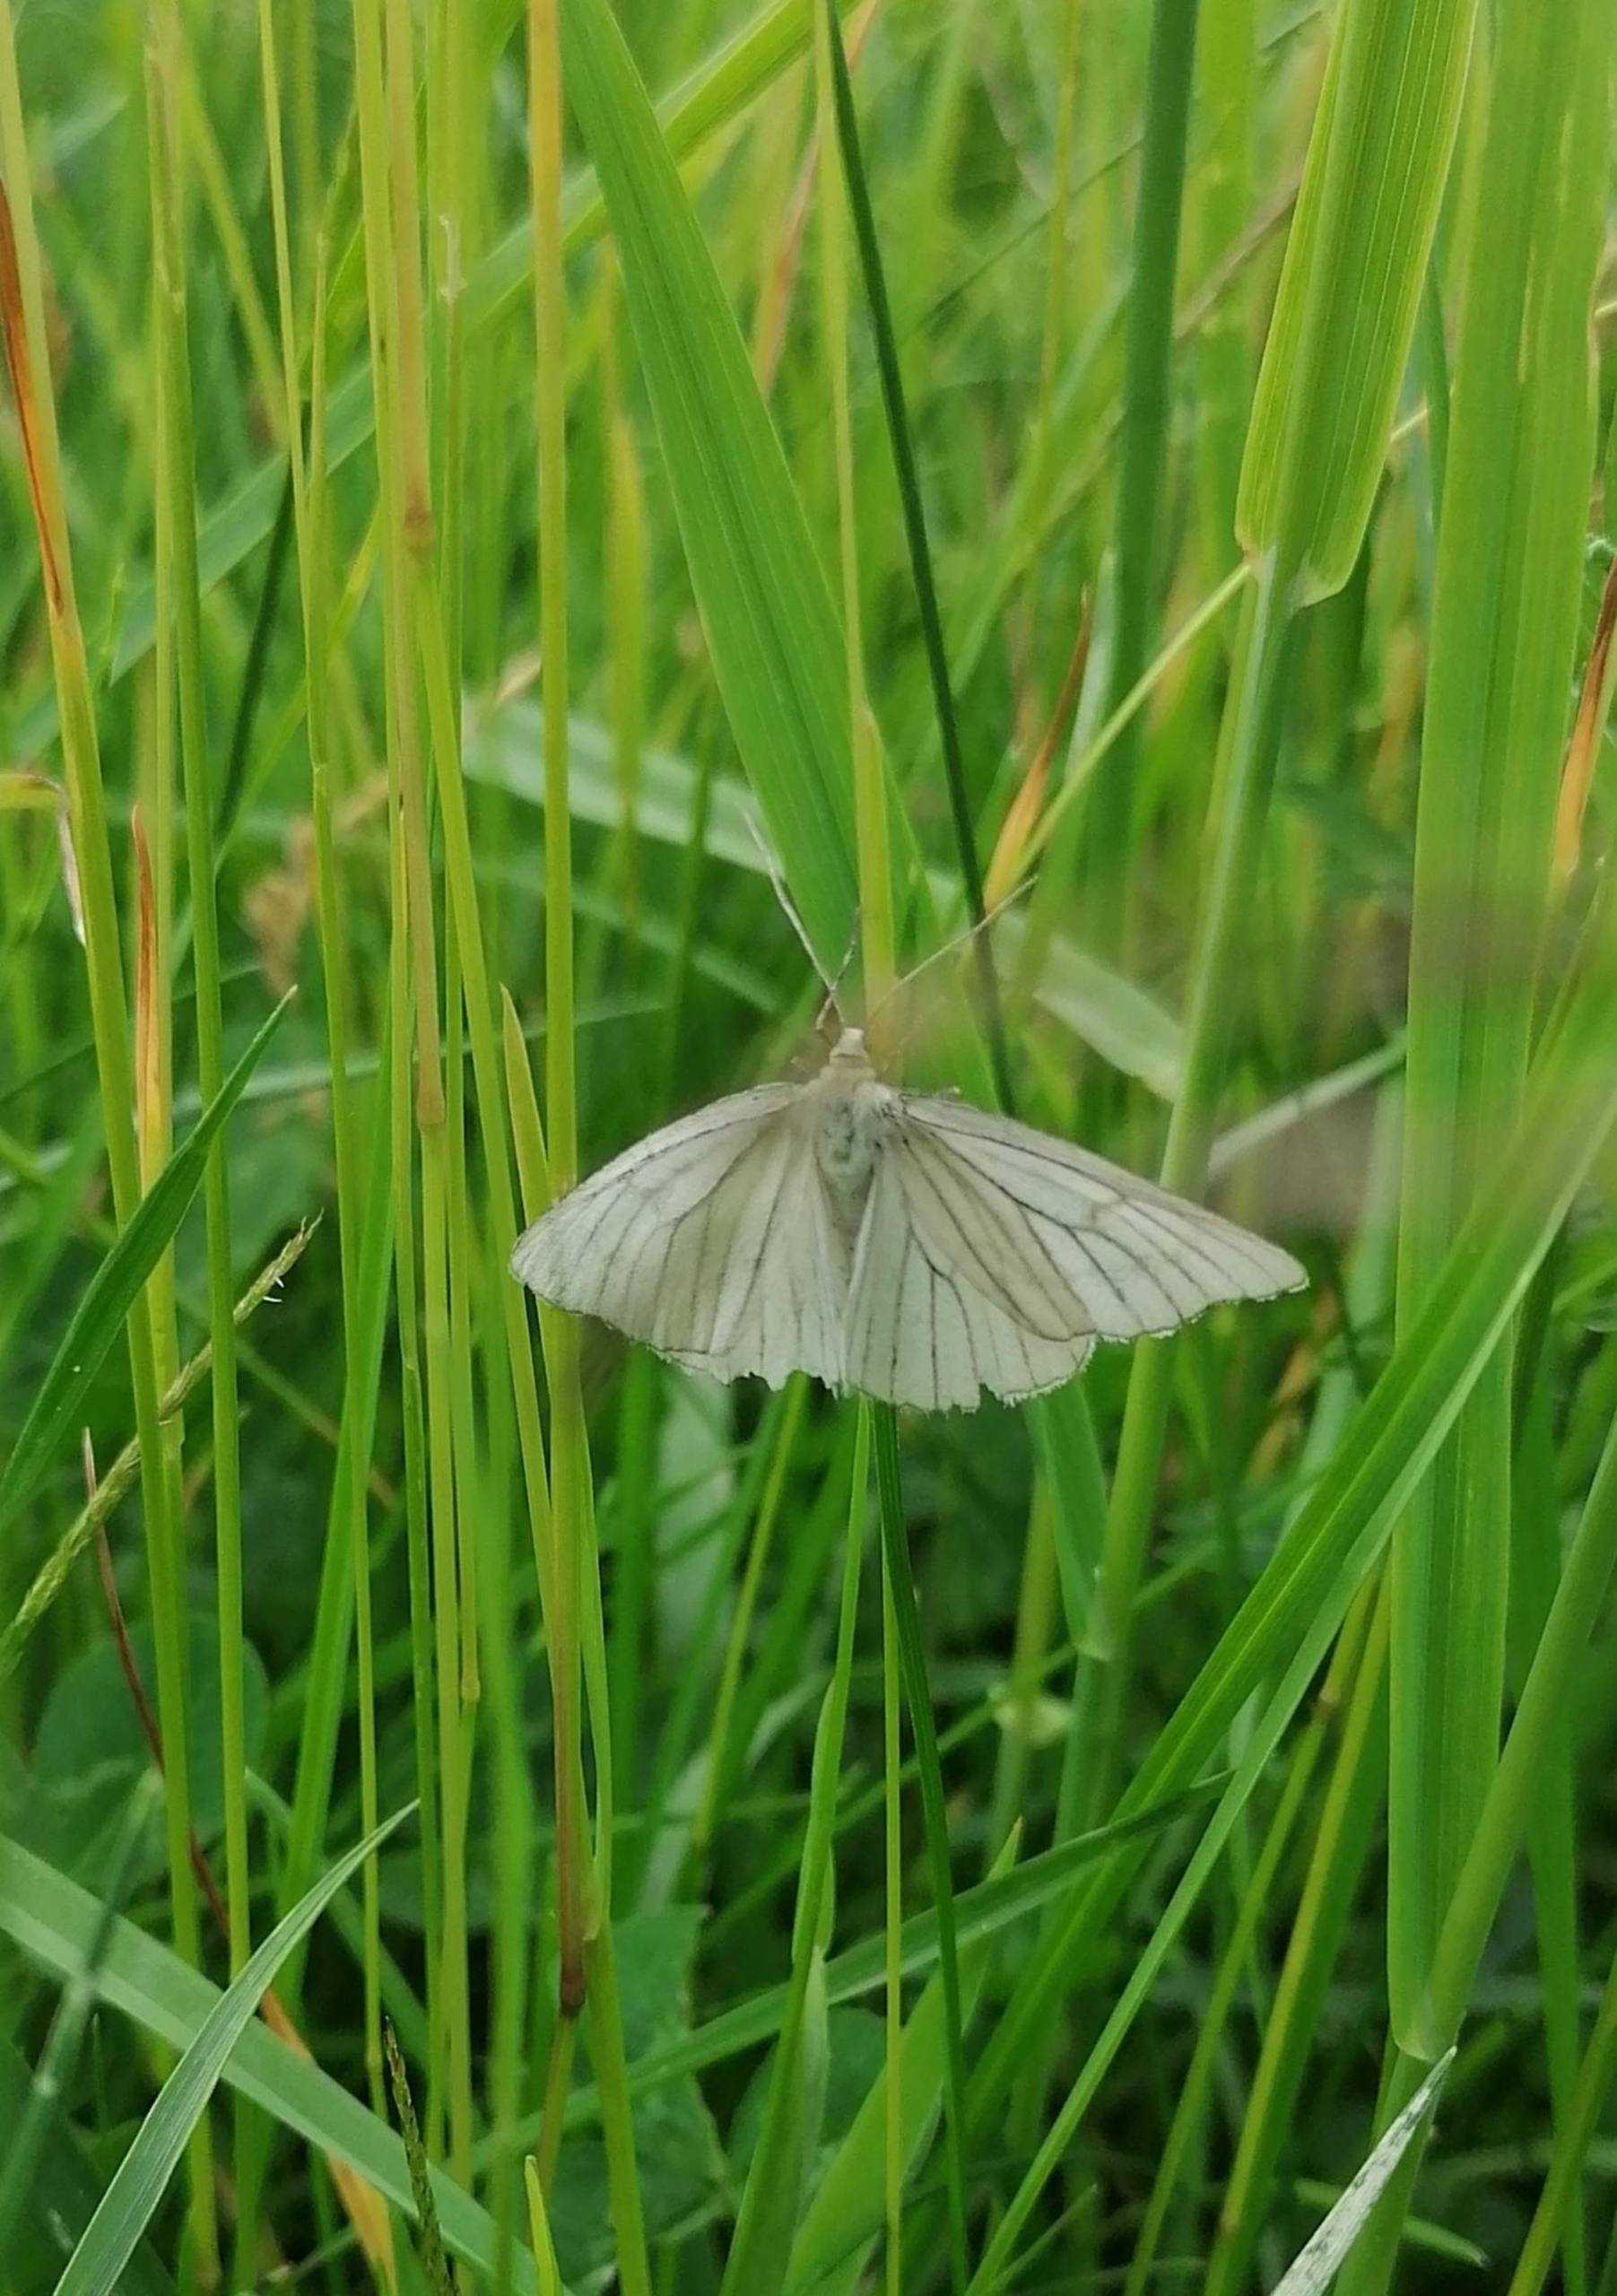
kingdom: Animalia
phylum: Arthropoda
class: Insecta
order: Lepidoptera
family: Geometridae
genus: Siona
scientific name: Siona lineata
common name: Hvidvingemåler
